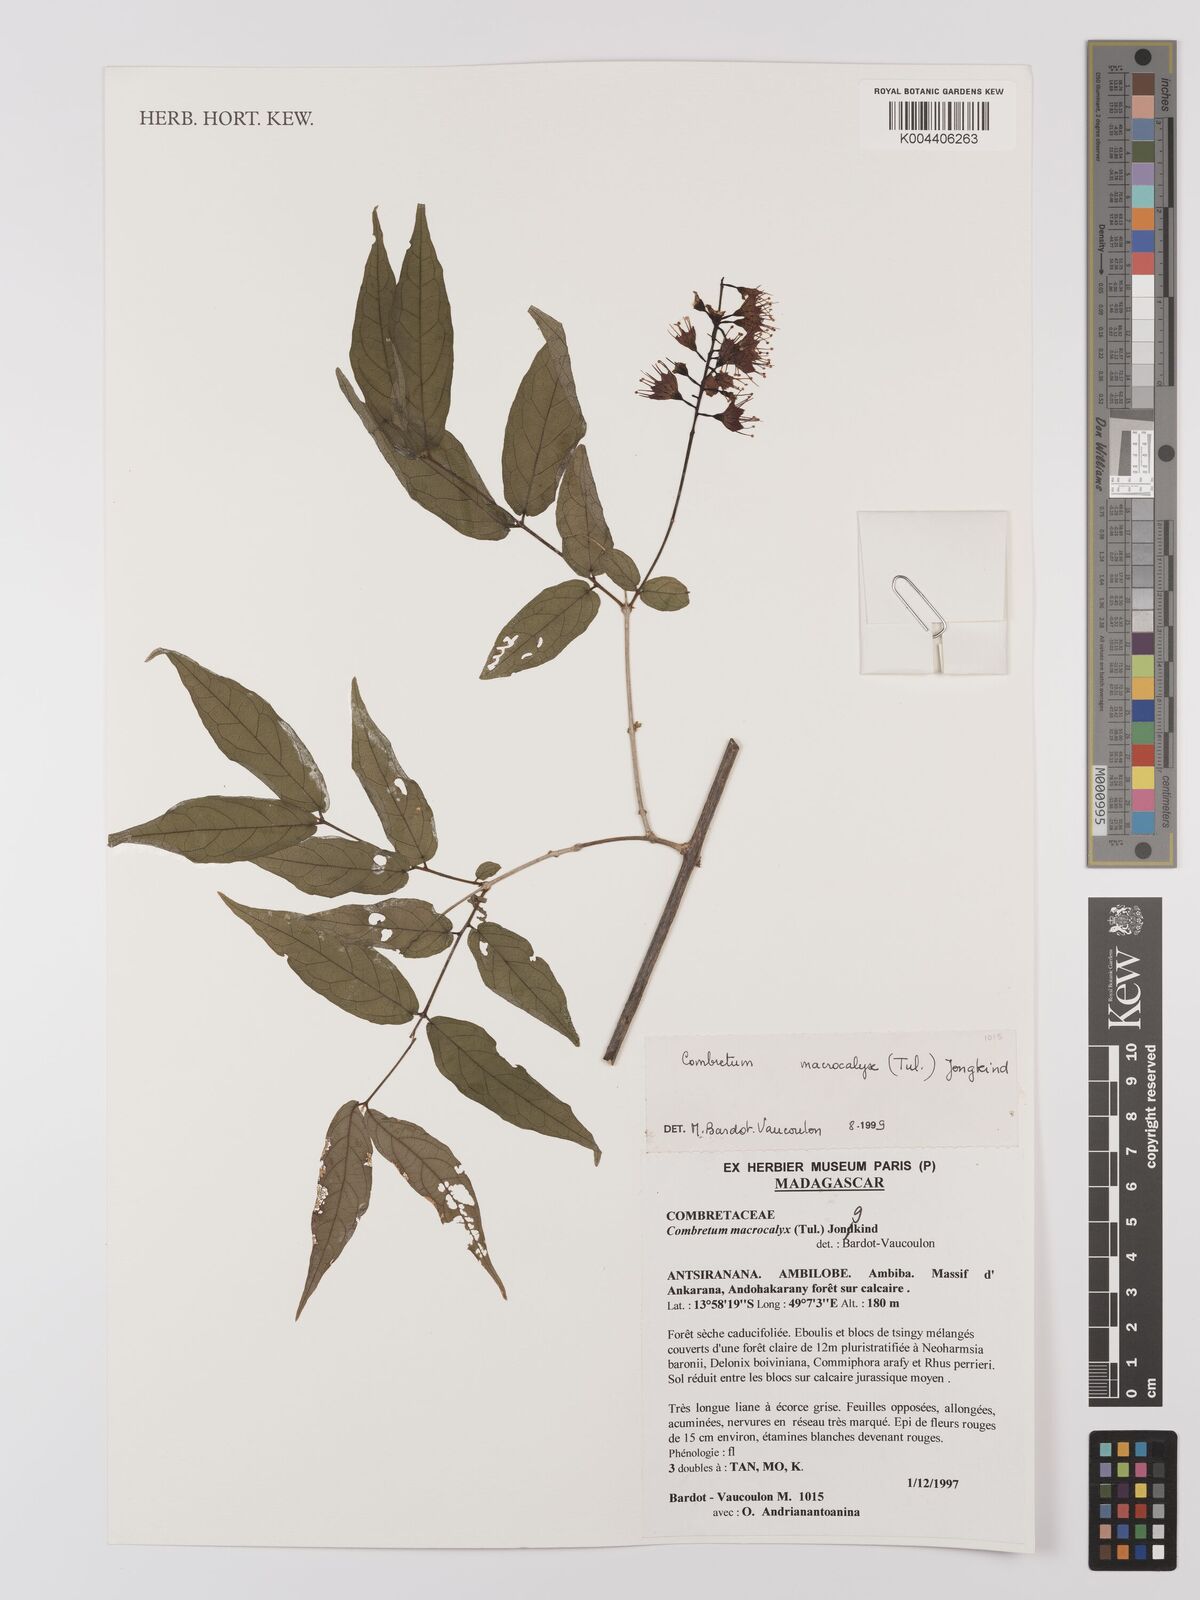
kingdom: Plantae
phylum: Tracheophyta
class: Magnoliopsida
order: Myrtales
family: Combretaceae
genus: Combretum
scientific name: Combretum macrocalyx
